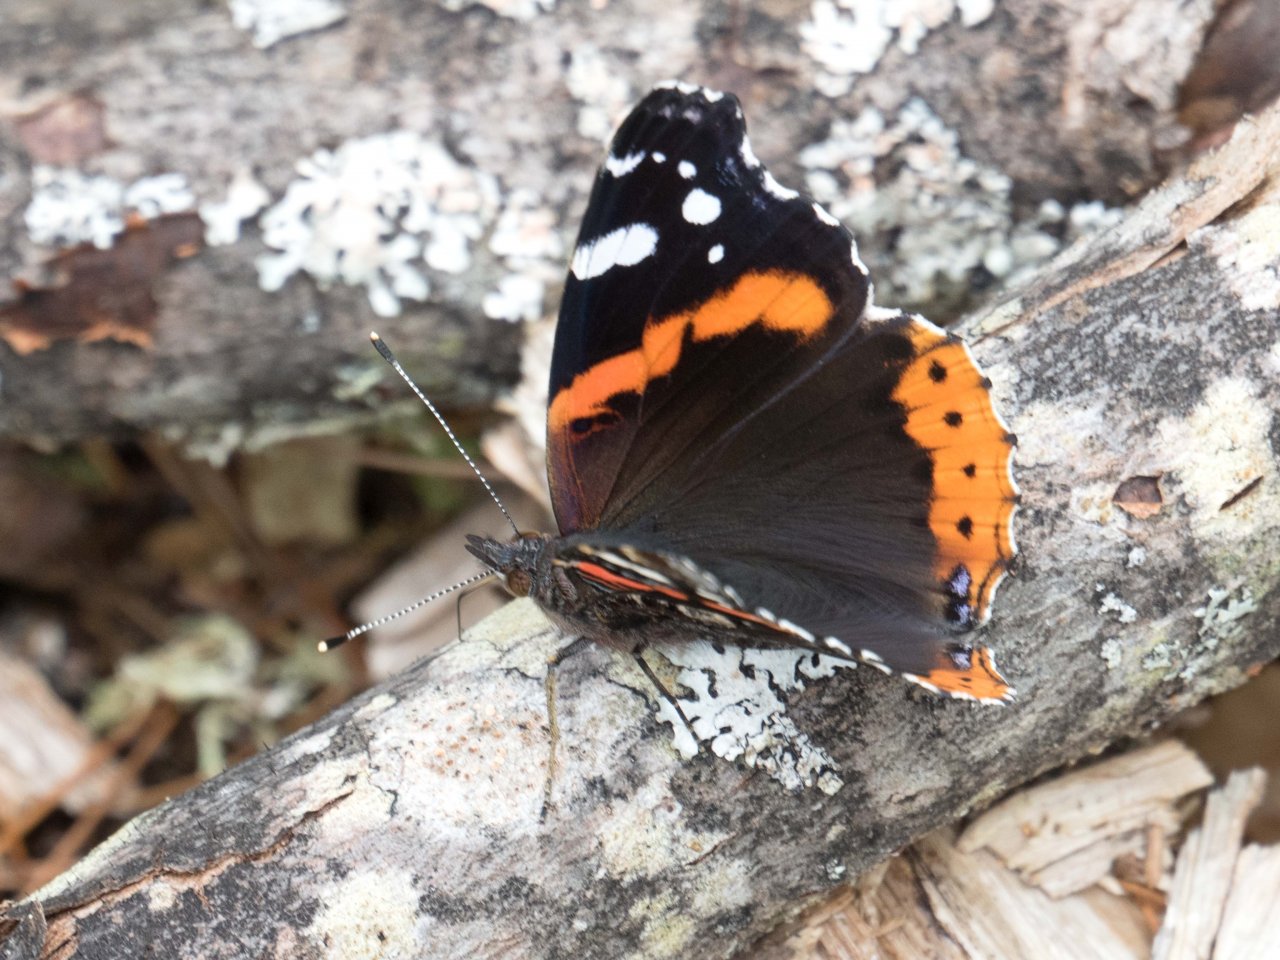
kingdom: Animalia
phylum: Arthropoda
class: Insecta
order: Lepidoptera
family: Nymphalidae
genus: Vanessa
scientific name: Vanessa atalanta
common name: Red Admiral
